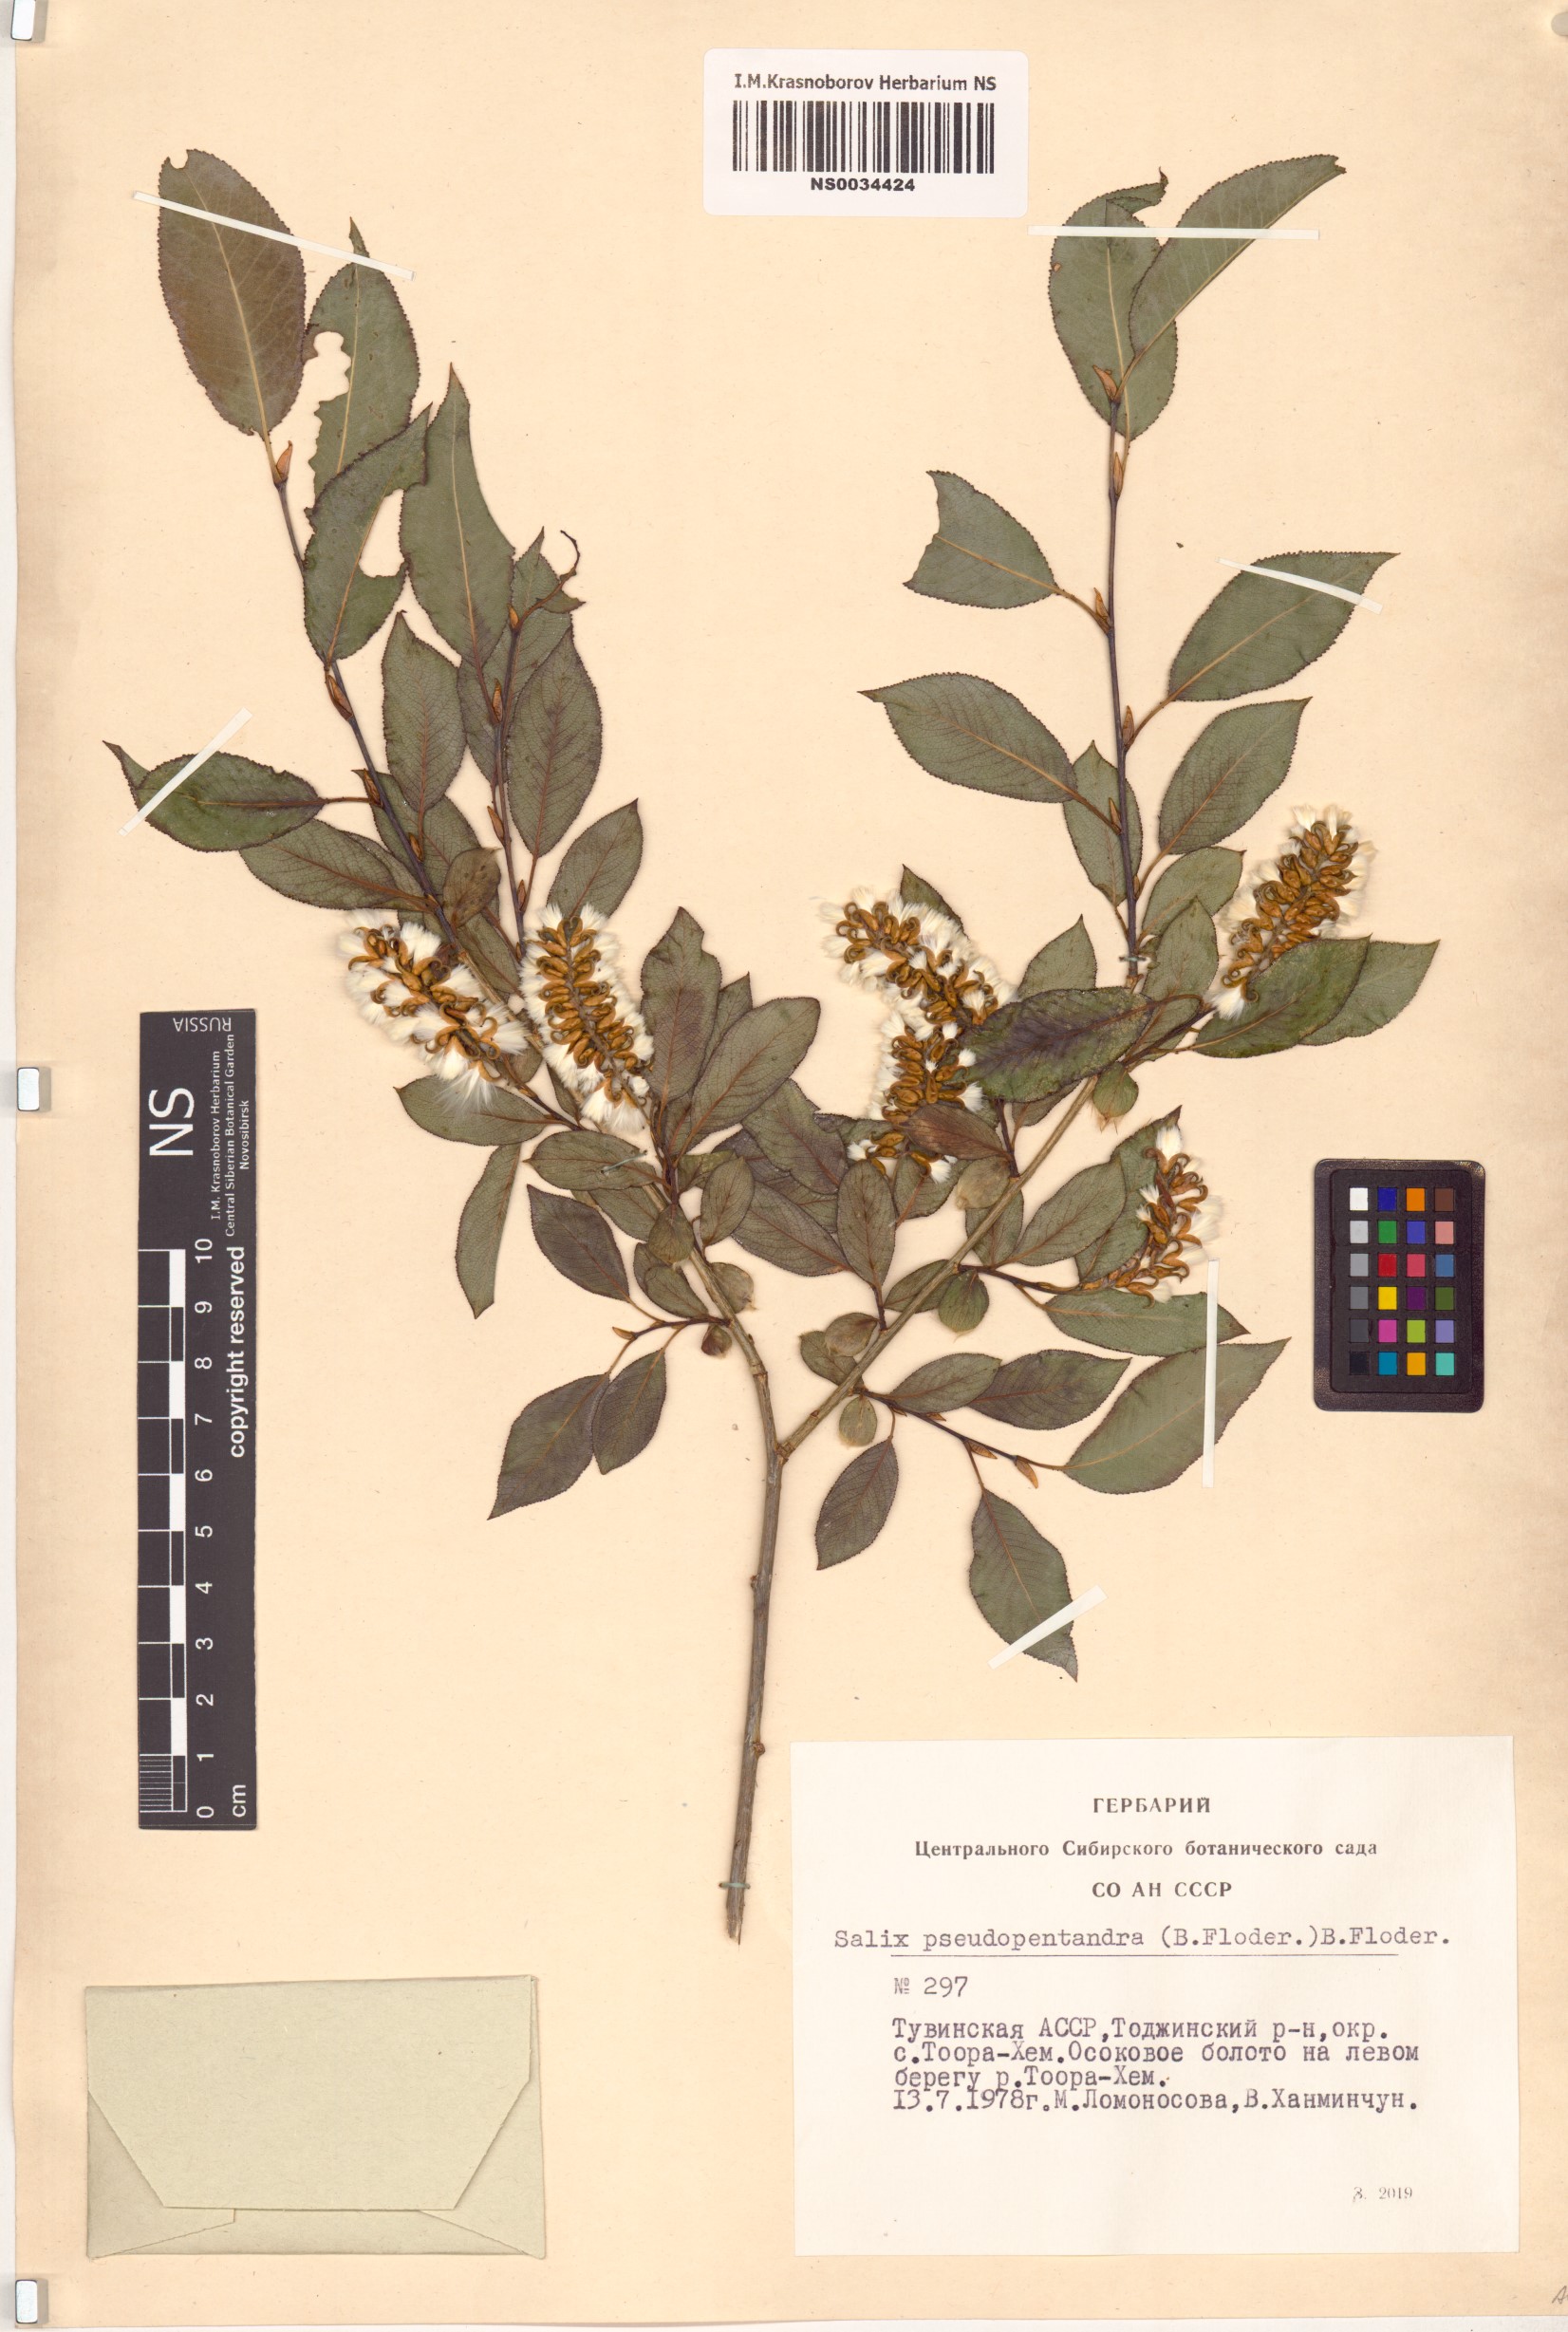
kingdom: Plantae
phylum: Tracheophyta
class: Magnoliopsida
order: Malpighiales
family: Salicaceae
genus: Salix
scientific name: Salix pseudopentandra
